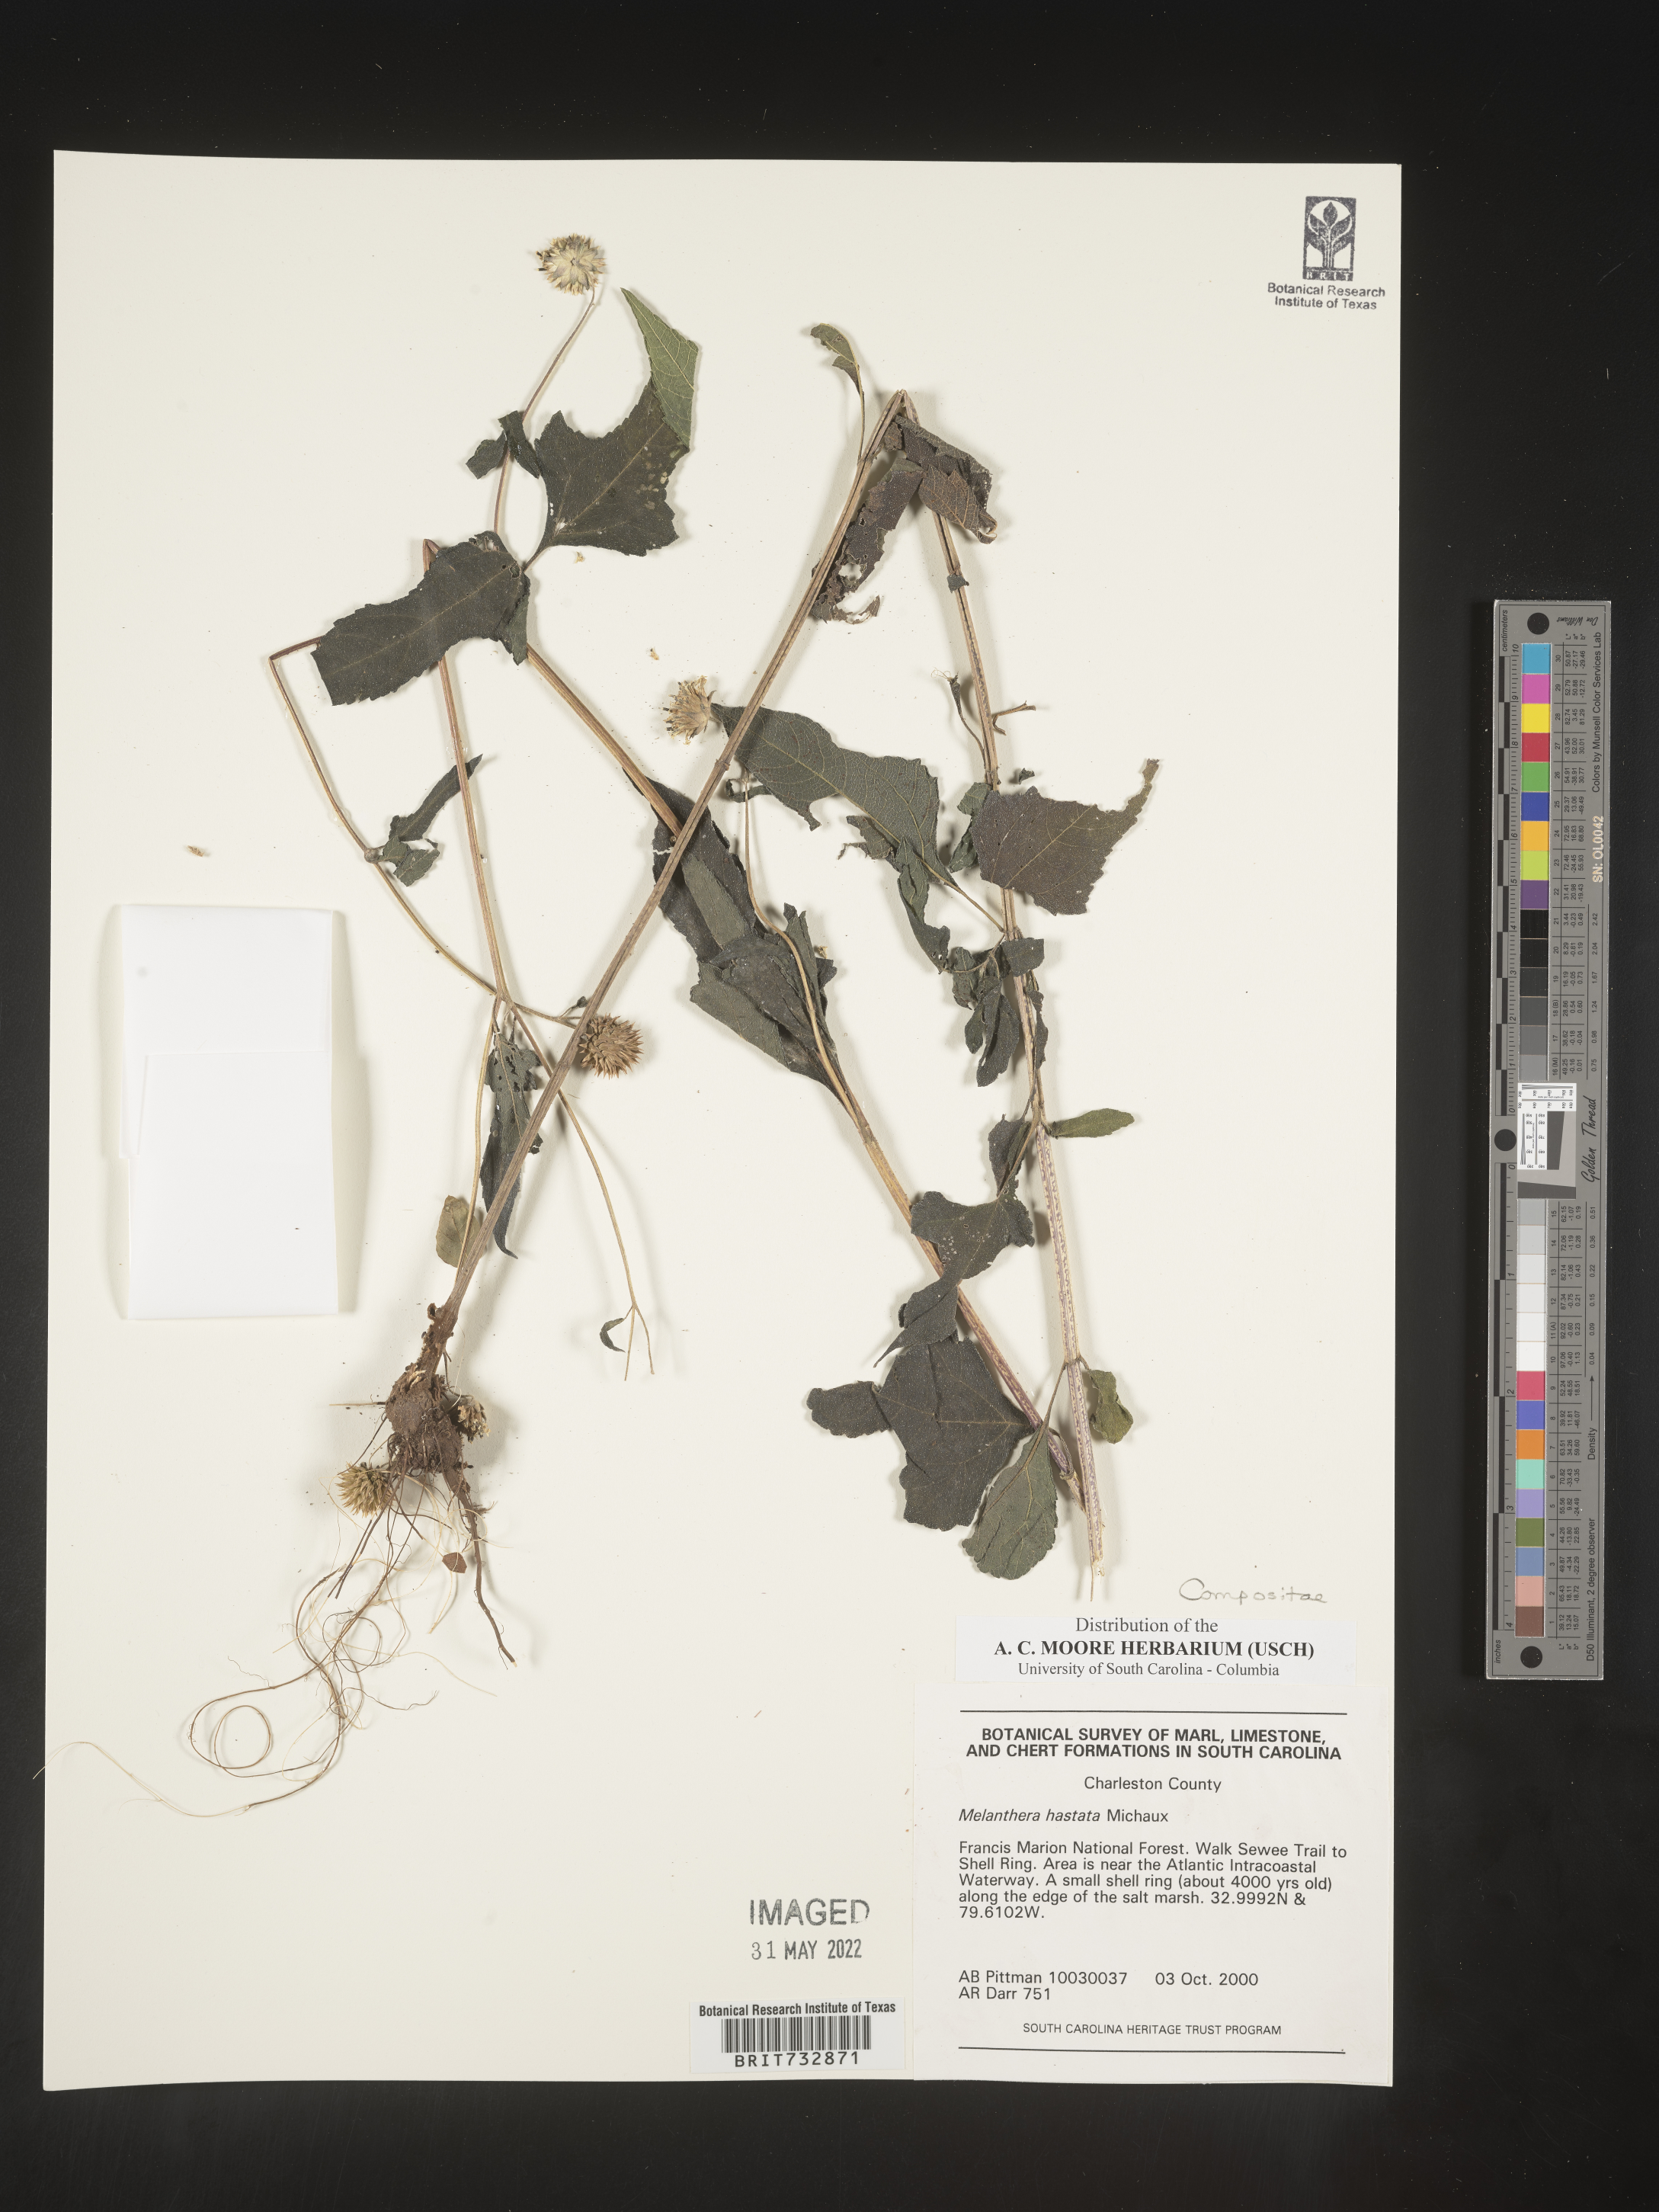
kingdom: Plantae
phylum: Tracheophyta
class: Magnoliopsida
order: Asterales
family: Asteraceae
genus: Melanthera
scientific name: Melanthera nivea
